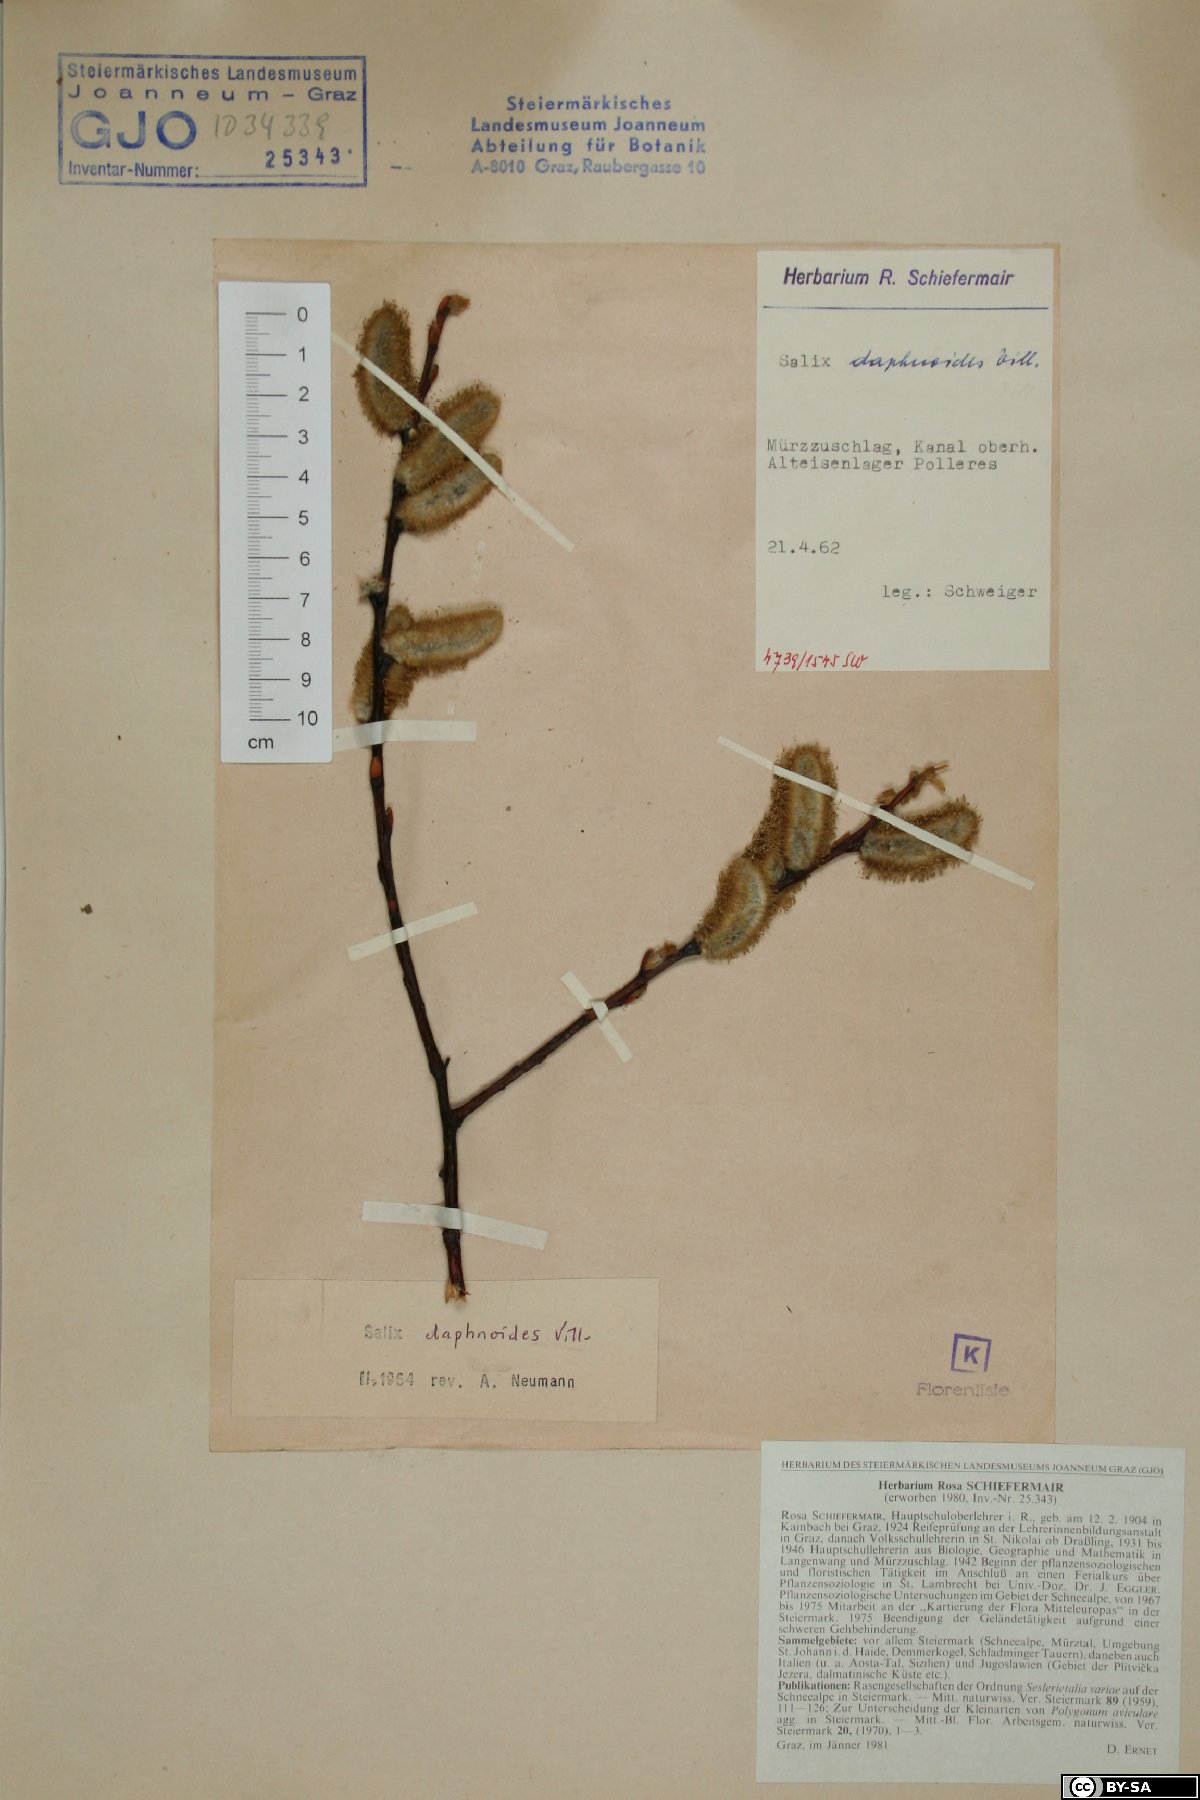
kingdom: Plantae
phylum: Tracheophyta
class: Magnoliopsida
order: Malpighiales
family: Salicaceae
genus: Salix
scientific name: Salix daphnoides
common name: European violet-willow
